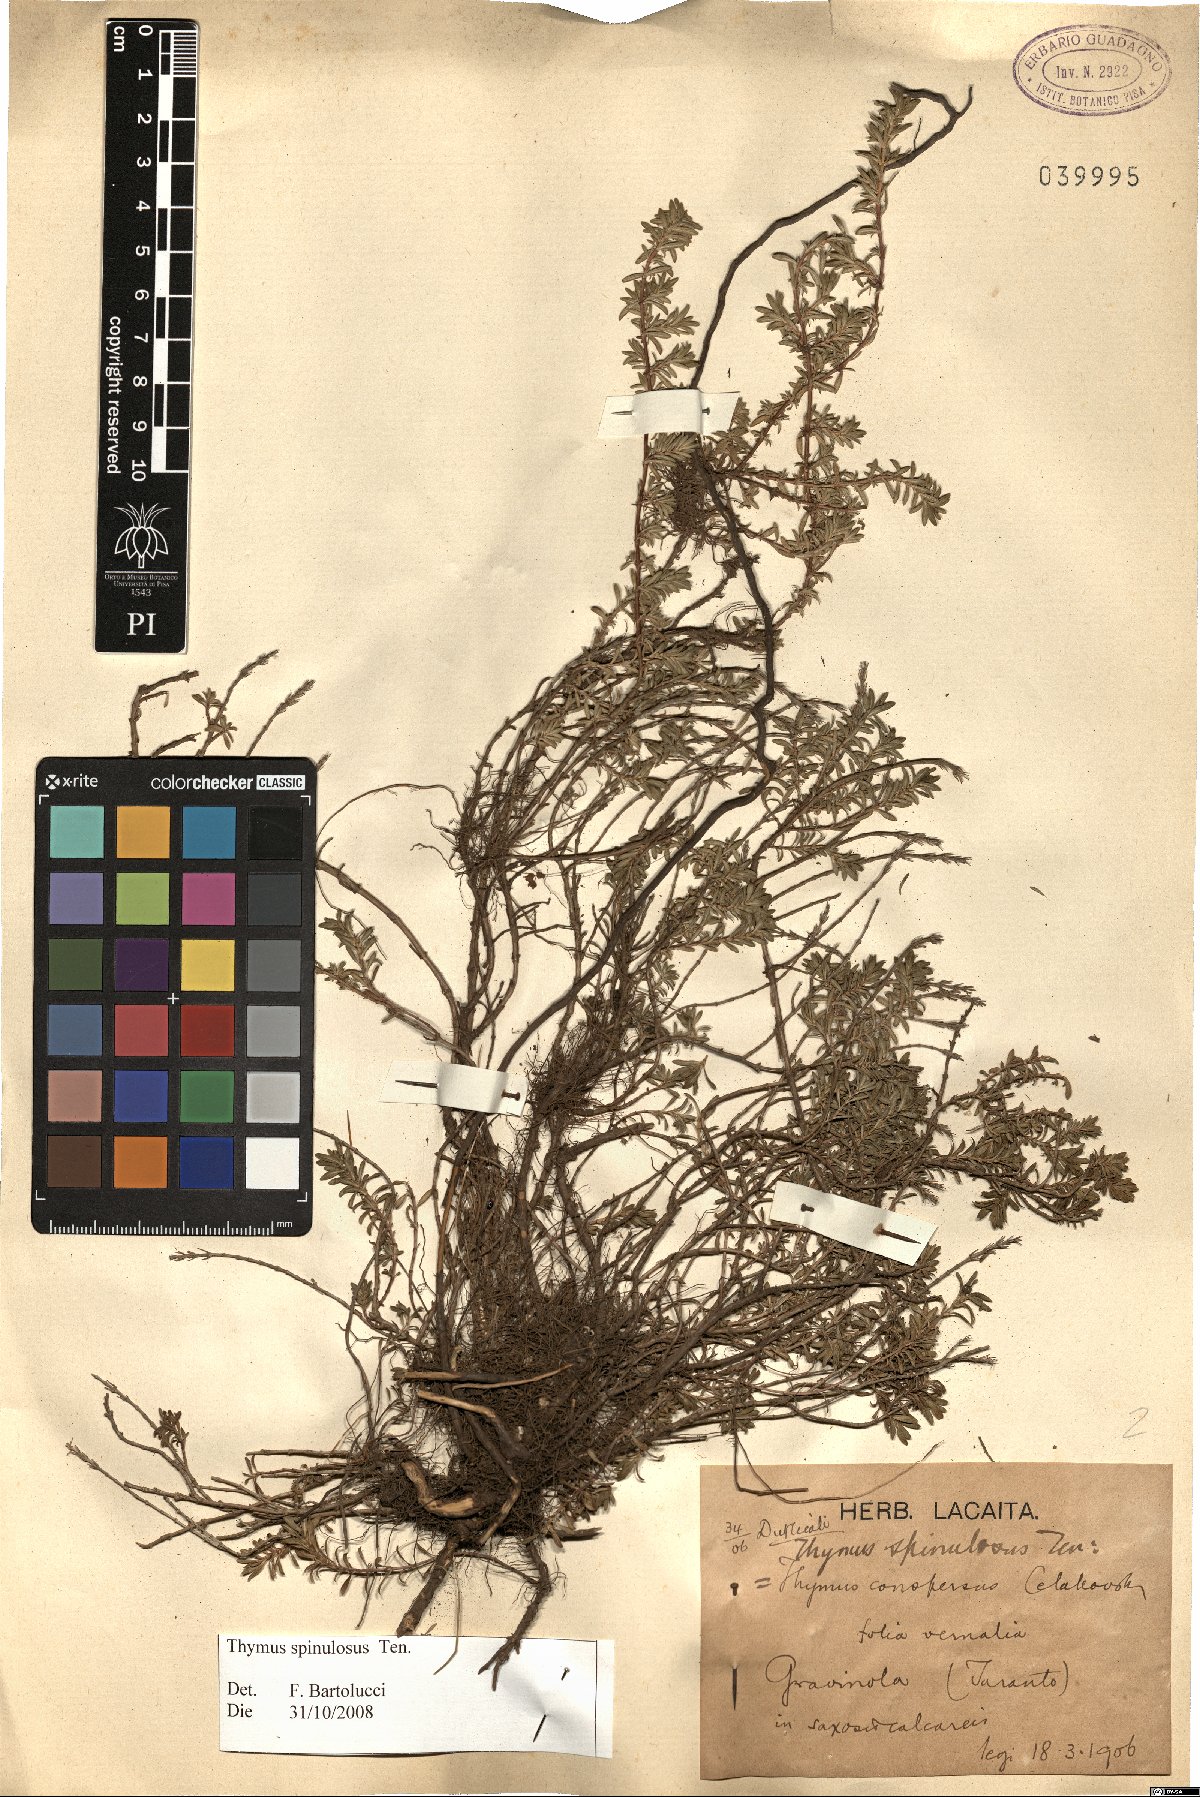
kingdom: Plantae
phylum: Tracheophyta
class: Magnoliopsida
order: Lamiales
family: Lamiaceae
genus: Thymus
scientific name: Thymus spinulosus
